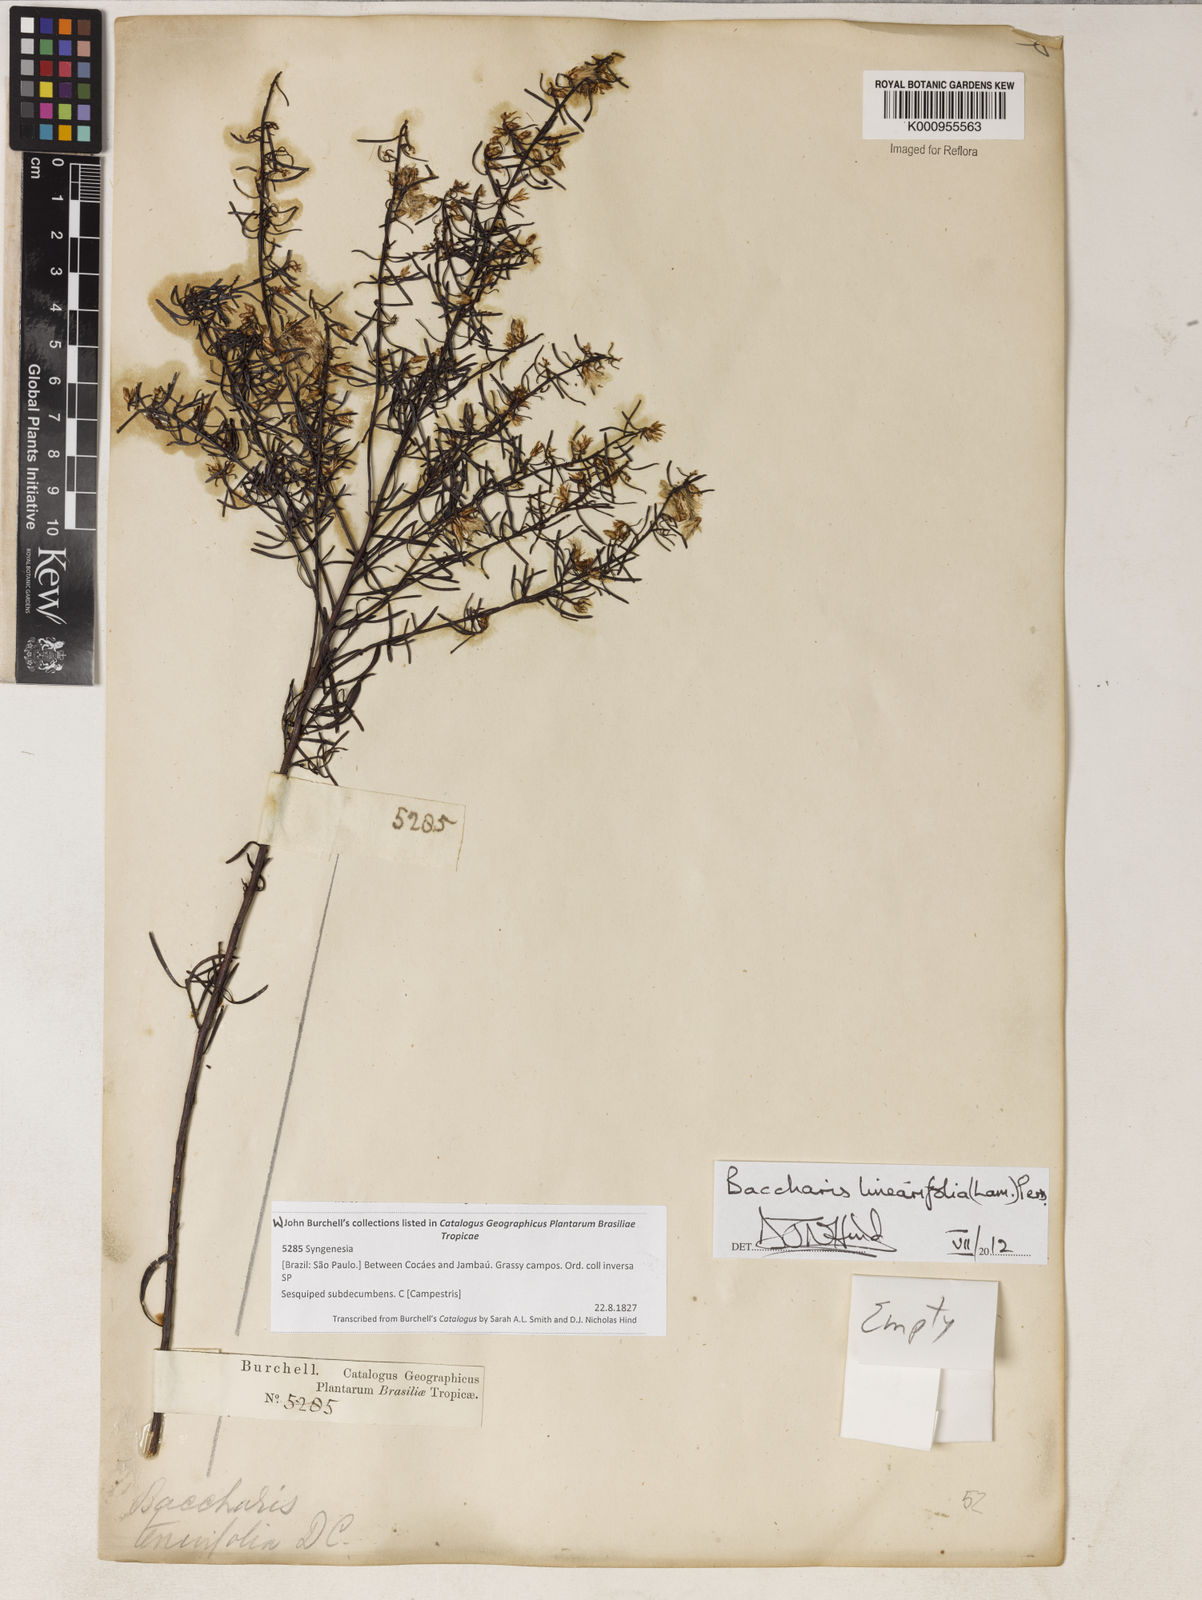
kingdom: Plantae
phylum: Tracheophyta
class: Magnoliopsida
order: Asterales
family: Asteraceae
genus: Baccharis
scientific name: Baccharis linearifolia
